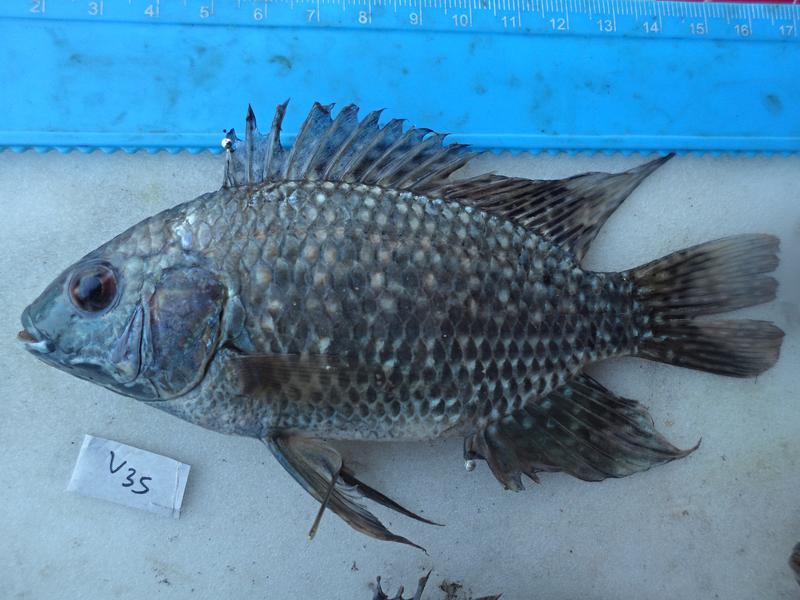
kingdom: Animalia
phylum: Chordata
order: Perciformes
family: Cichlidae
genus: Oreochromis
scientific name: Oreochromis leucostictus
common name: Blue spotted tilapia
